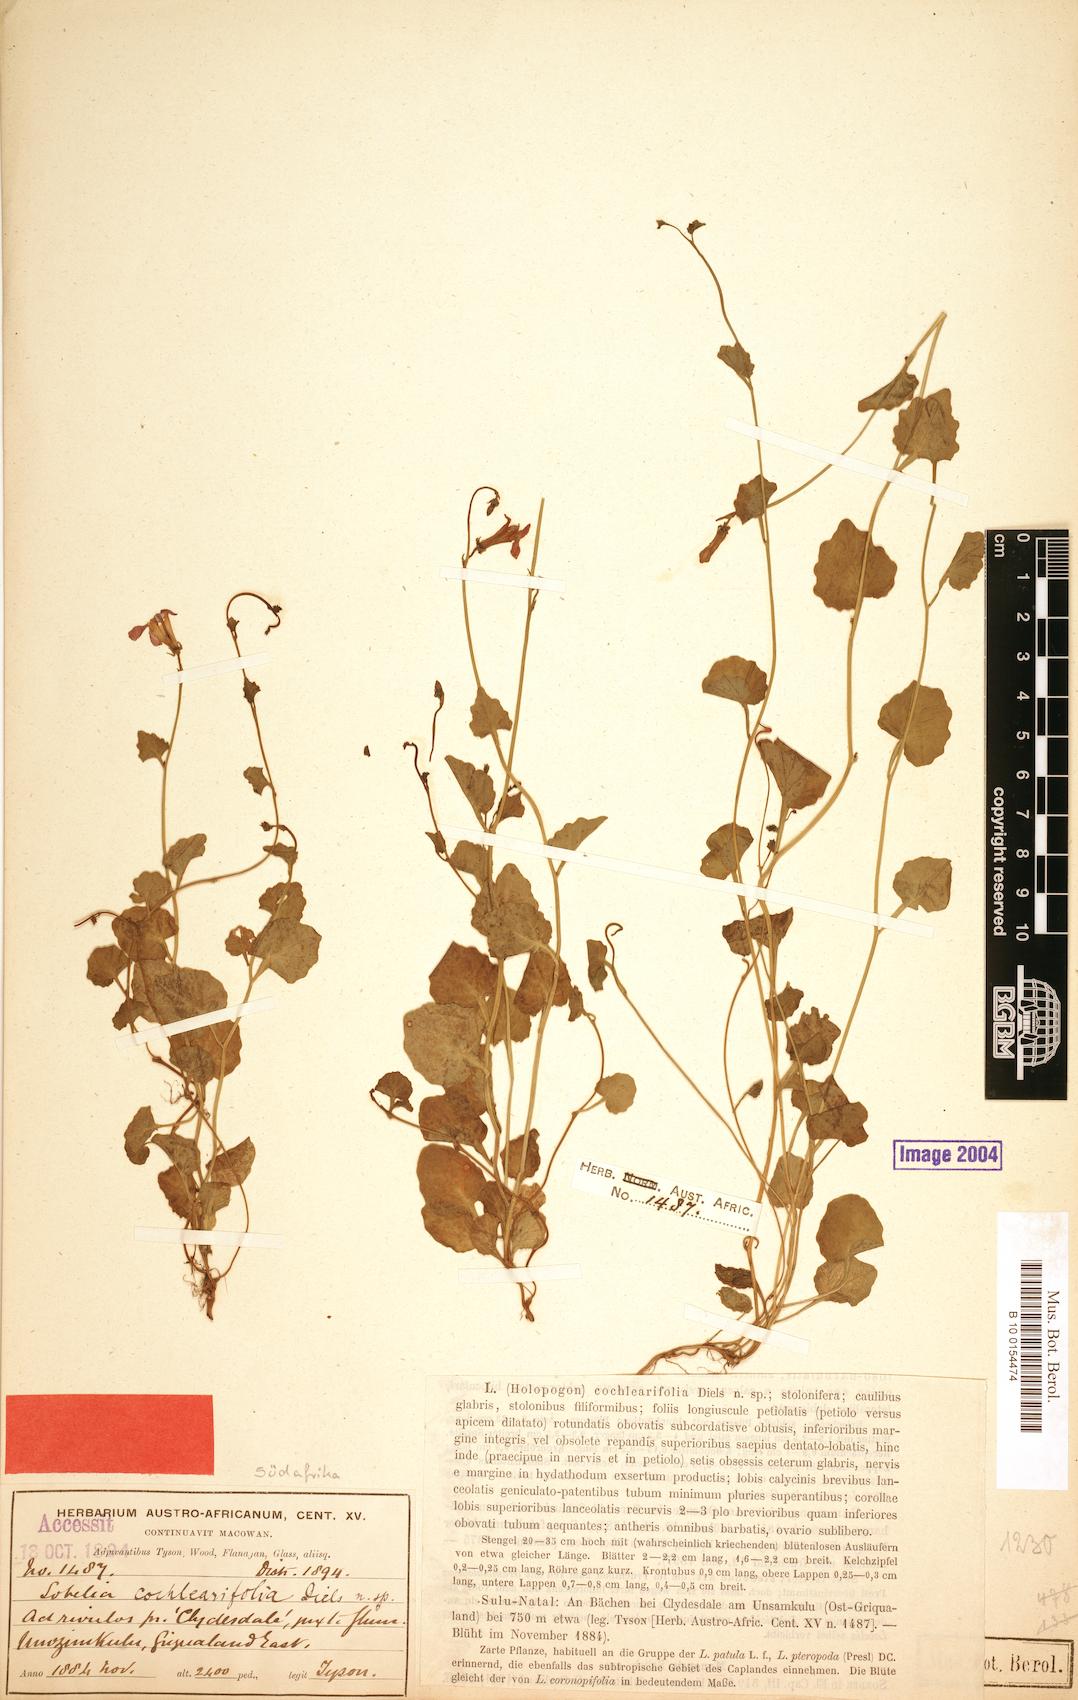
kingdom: Plantae
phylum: Tracheophyta
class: Magnoliopsida
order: Asterales
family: Campanulaceae
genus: Lobelia
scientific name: Lobelia cochleariifolia
